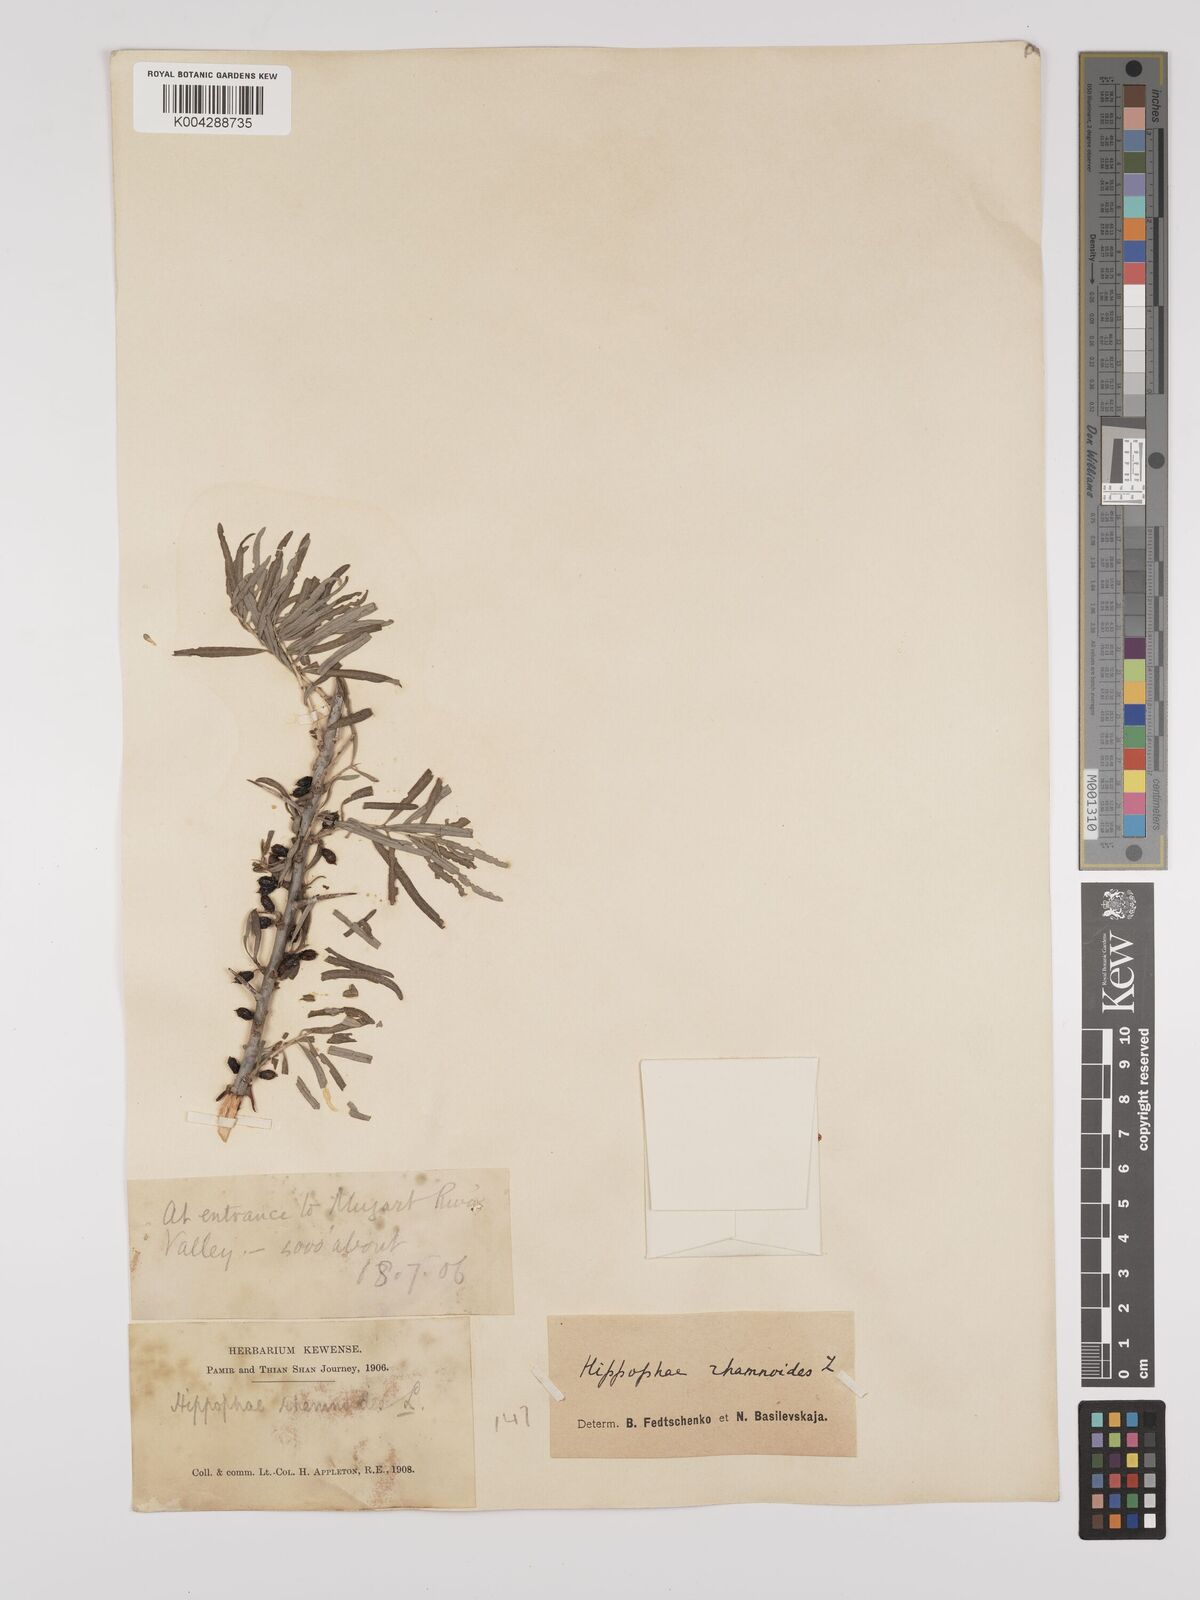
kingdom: Plantae
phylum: Tracheophyta
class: Magnoliopsida
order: Rosales
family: Elaeagnaceae
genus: Hippophae
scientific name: Hippophae rhamnoides
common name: Sea-buckthorn
